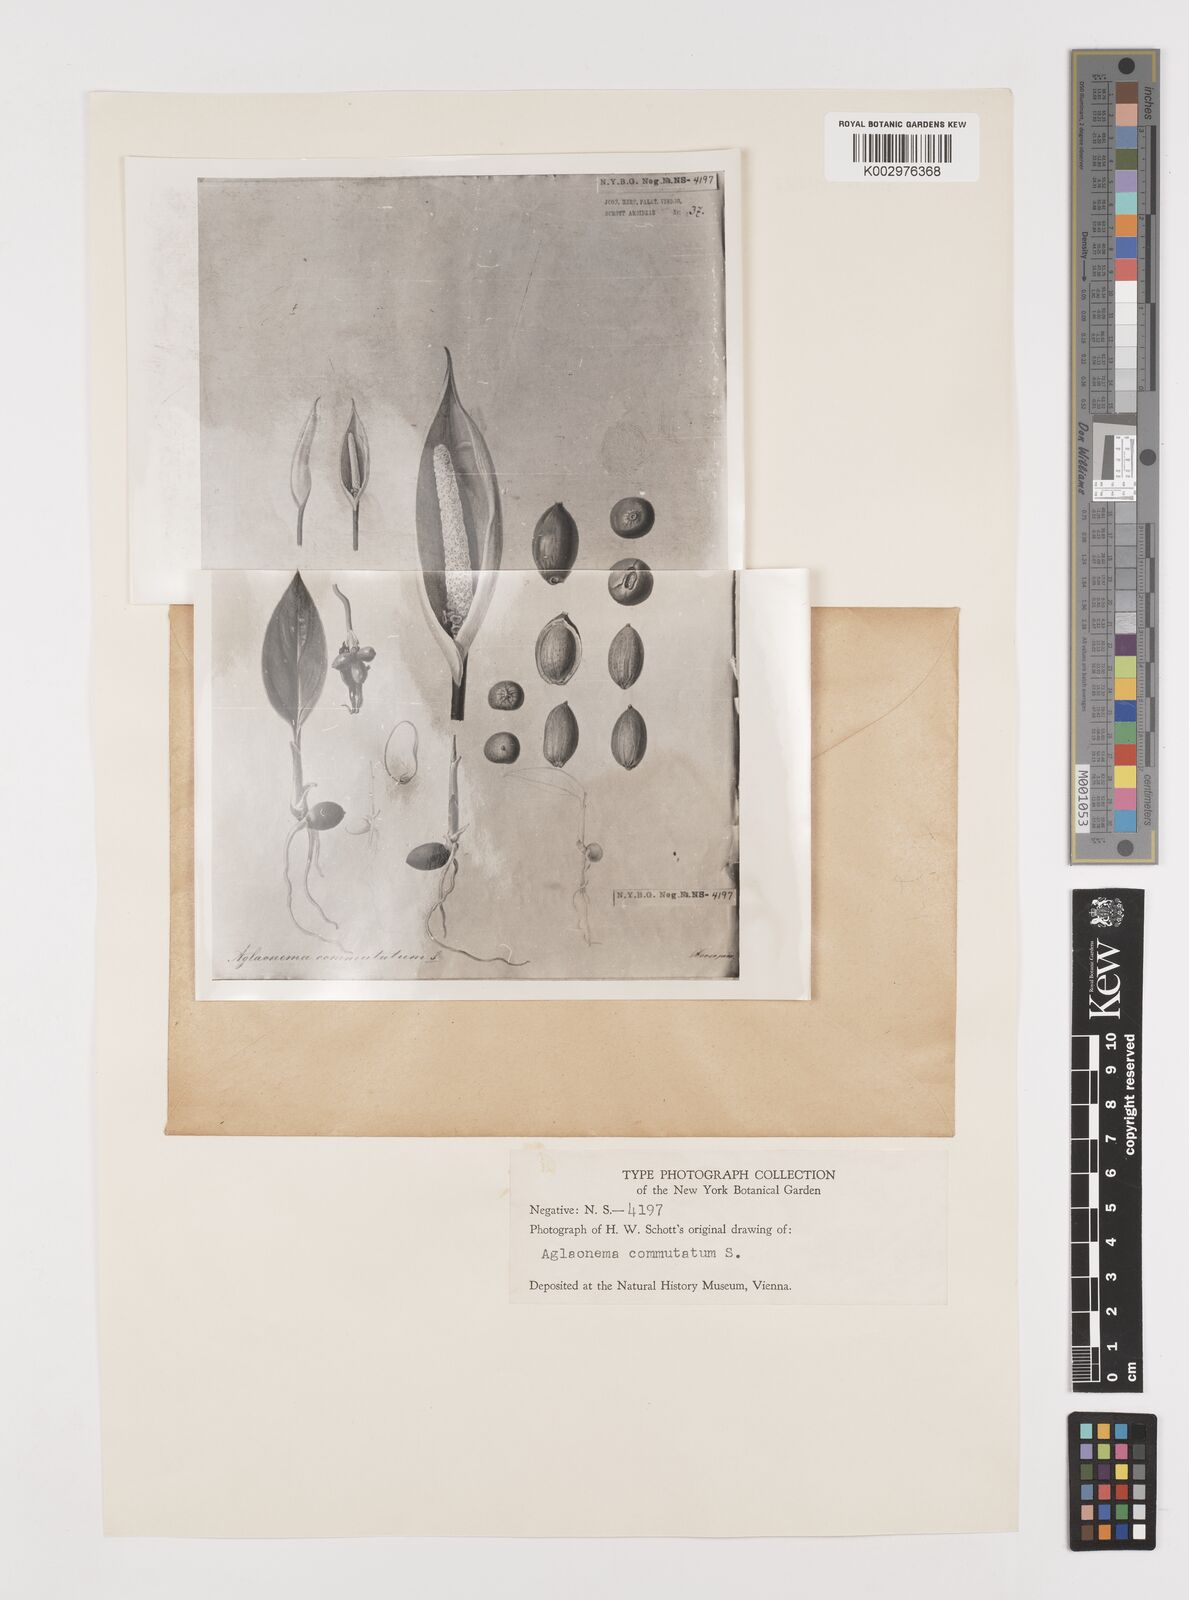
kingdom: Plantae
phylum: Tracheophyta
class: Liliopsida
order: Alismatales
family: Araceae
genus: Aglaonema
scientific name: Aglaonema commutatum
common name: Philippine evergreen
